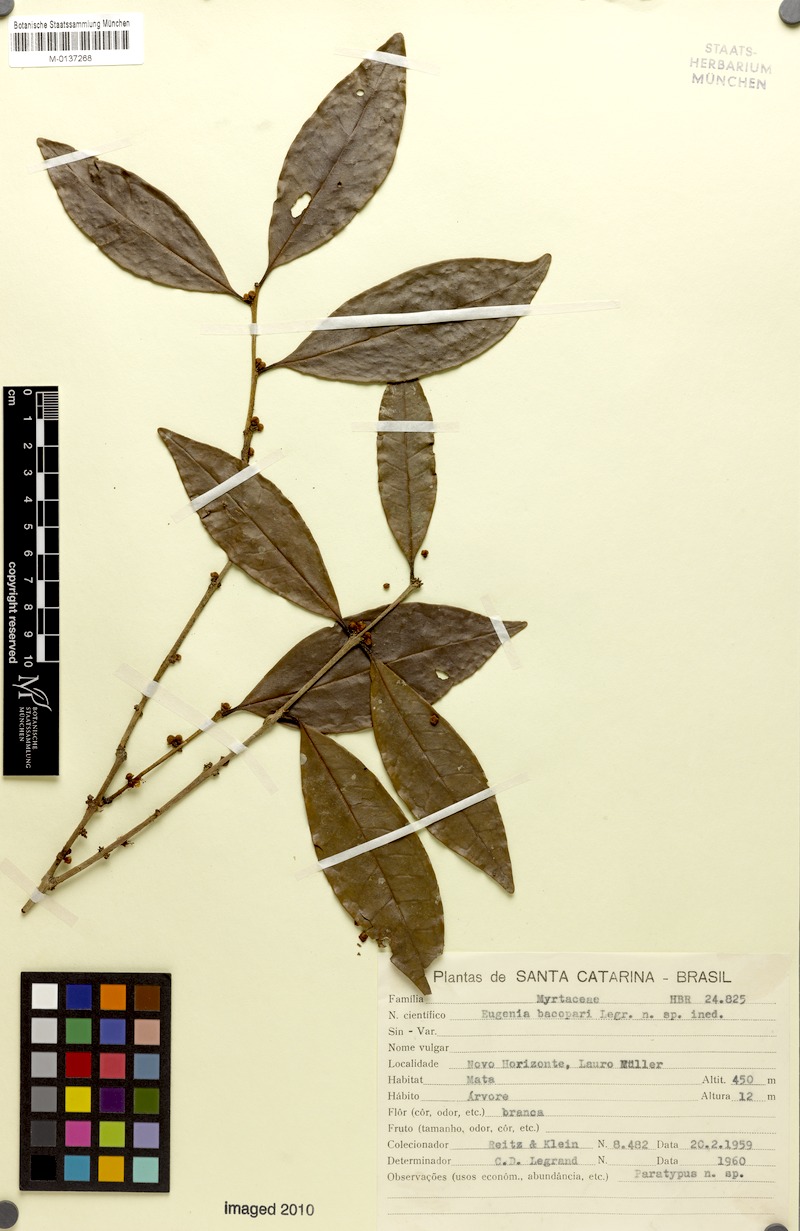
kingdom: Plantae
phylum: Tracheophyta
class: Magnoliopsida
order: Myrtales
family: Myrtaceae
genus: Eugenia
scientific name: Eugenia bacopari
